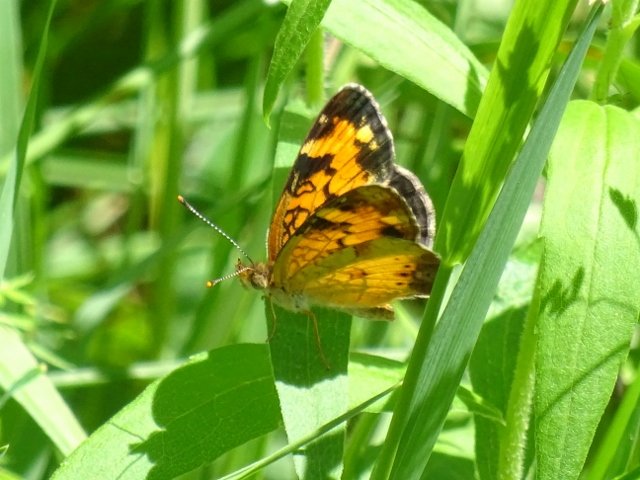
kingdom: Animalia
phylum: Arthropoda
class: Insecta
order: Lepidoptera
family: Nymphalidae
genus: Phyciodes
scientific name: Phyciodes tharos
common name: Northern Crescent
